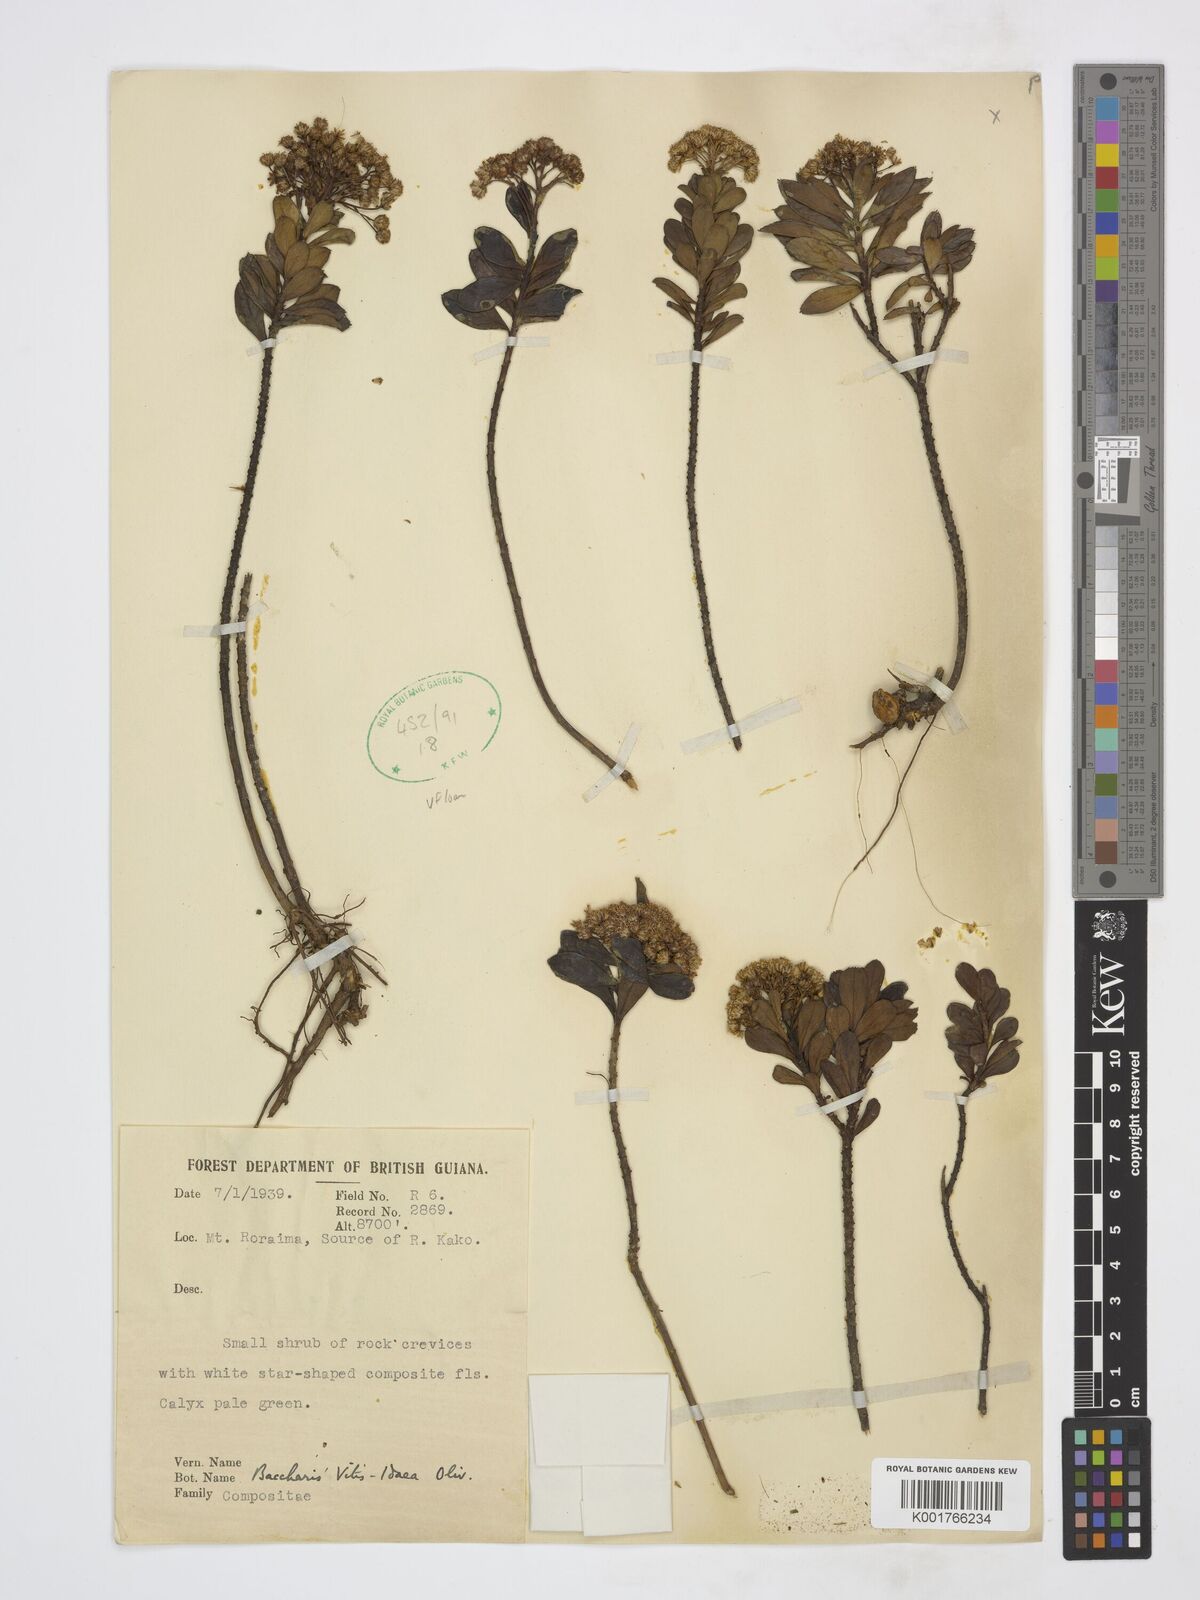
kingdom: Plantae
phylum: Tracheophyta
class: Magnoliopsida
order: Asterales
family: Asteraceae
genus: Baccharis
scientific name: Baccharis ligustrina
